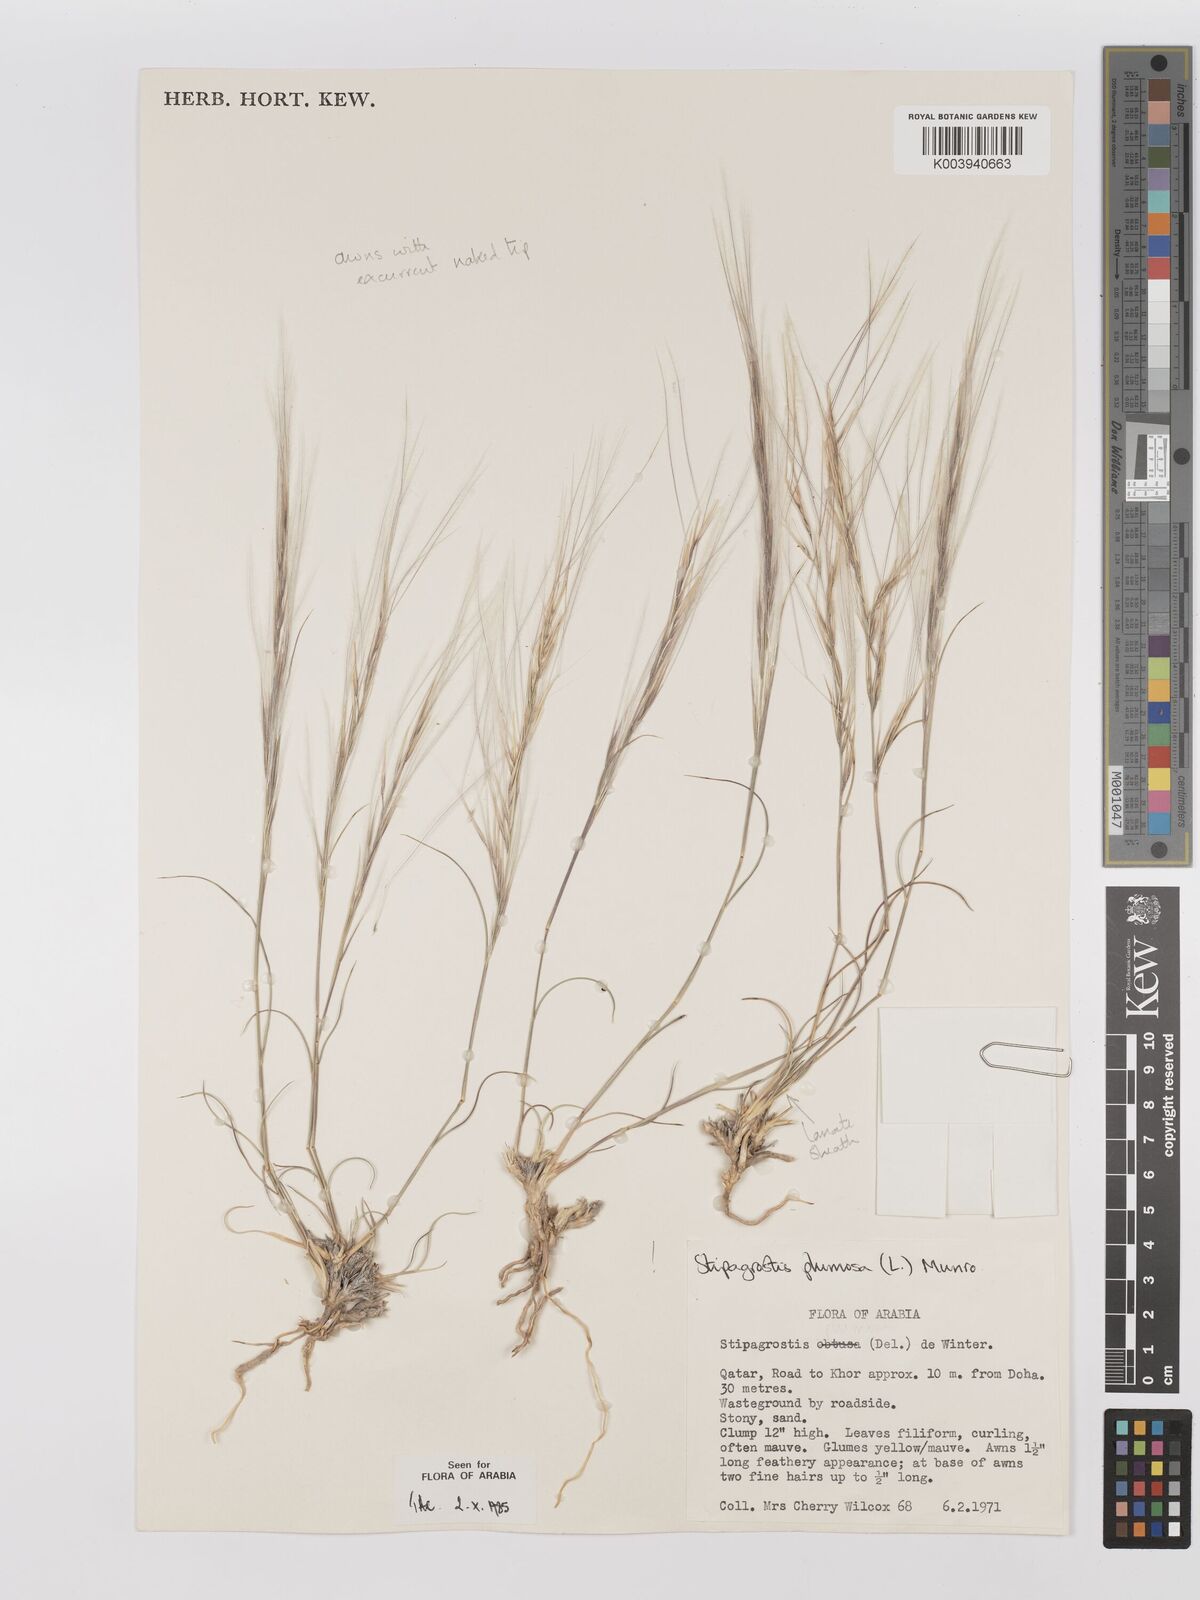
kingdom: Plantae
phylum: Tracheophyta
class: Liliopsida
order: Poales
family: Poaceae
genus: Stipagrostis
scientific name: Stipagrostis plumosa
